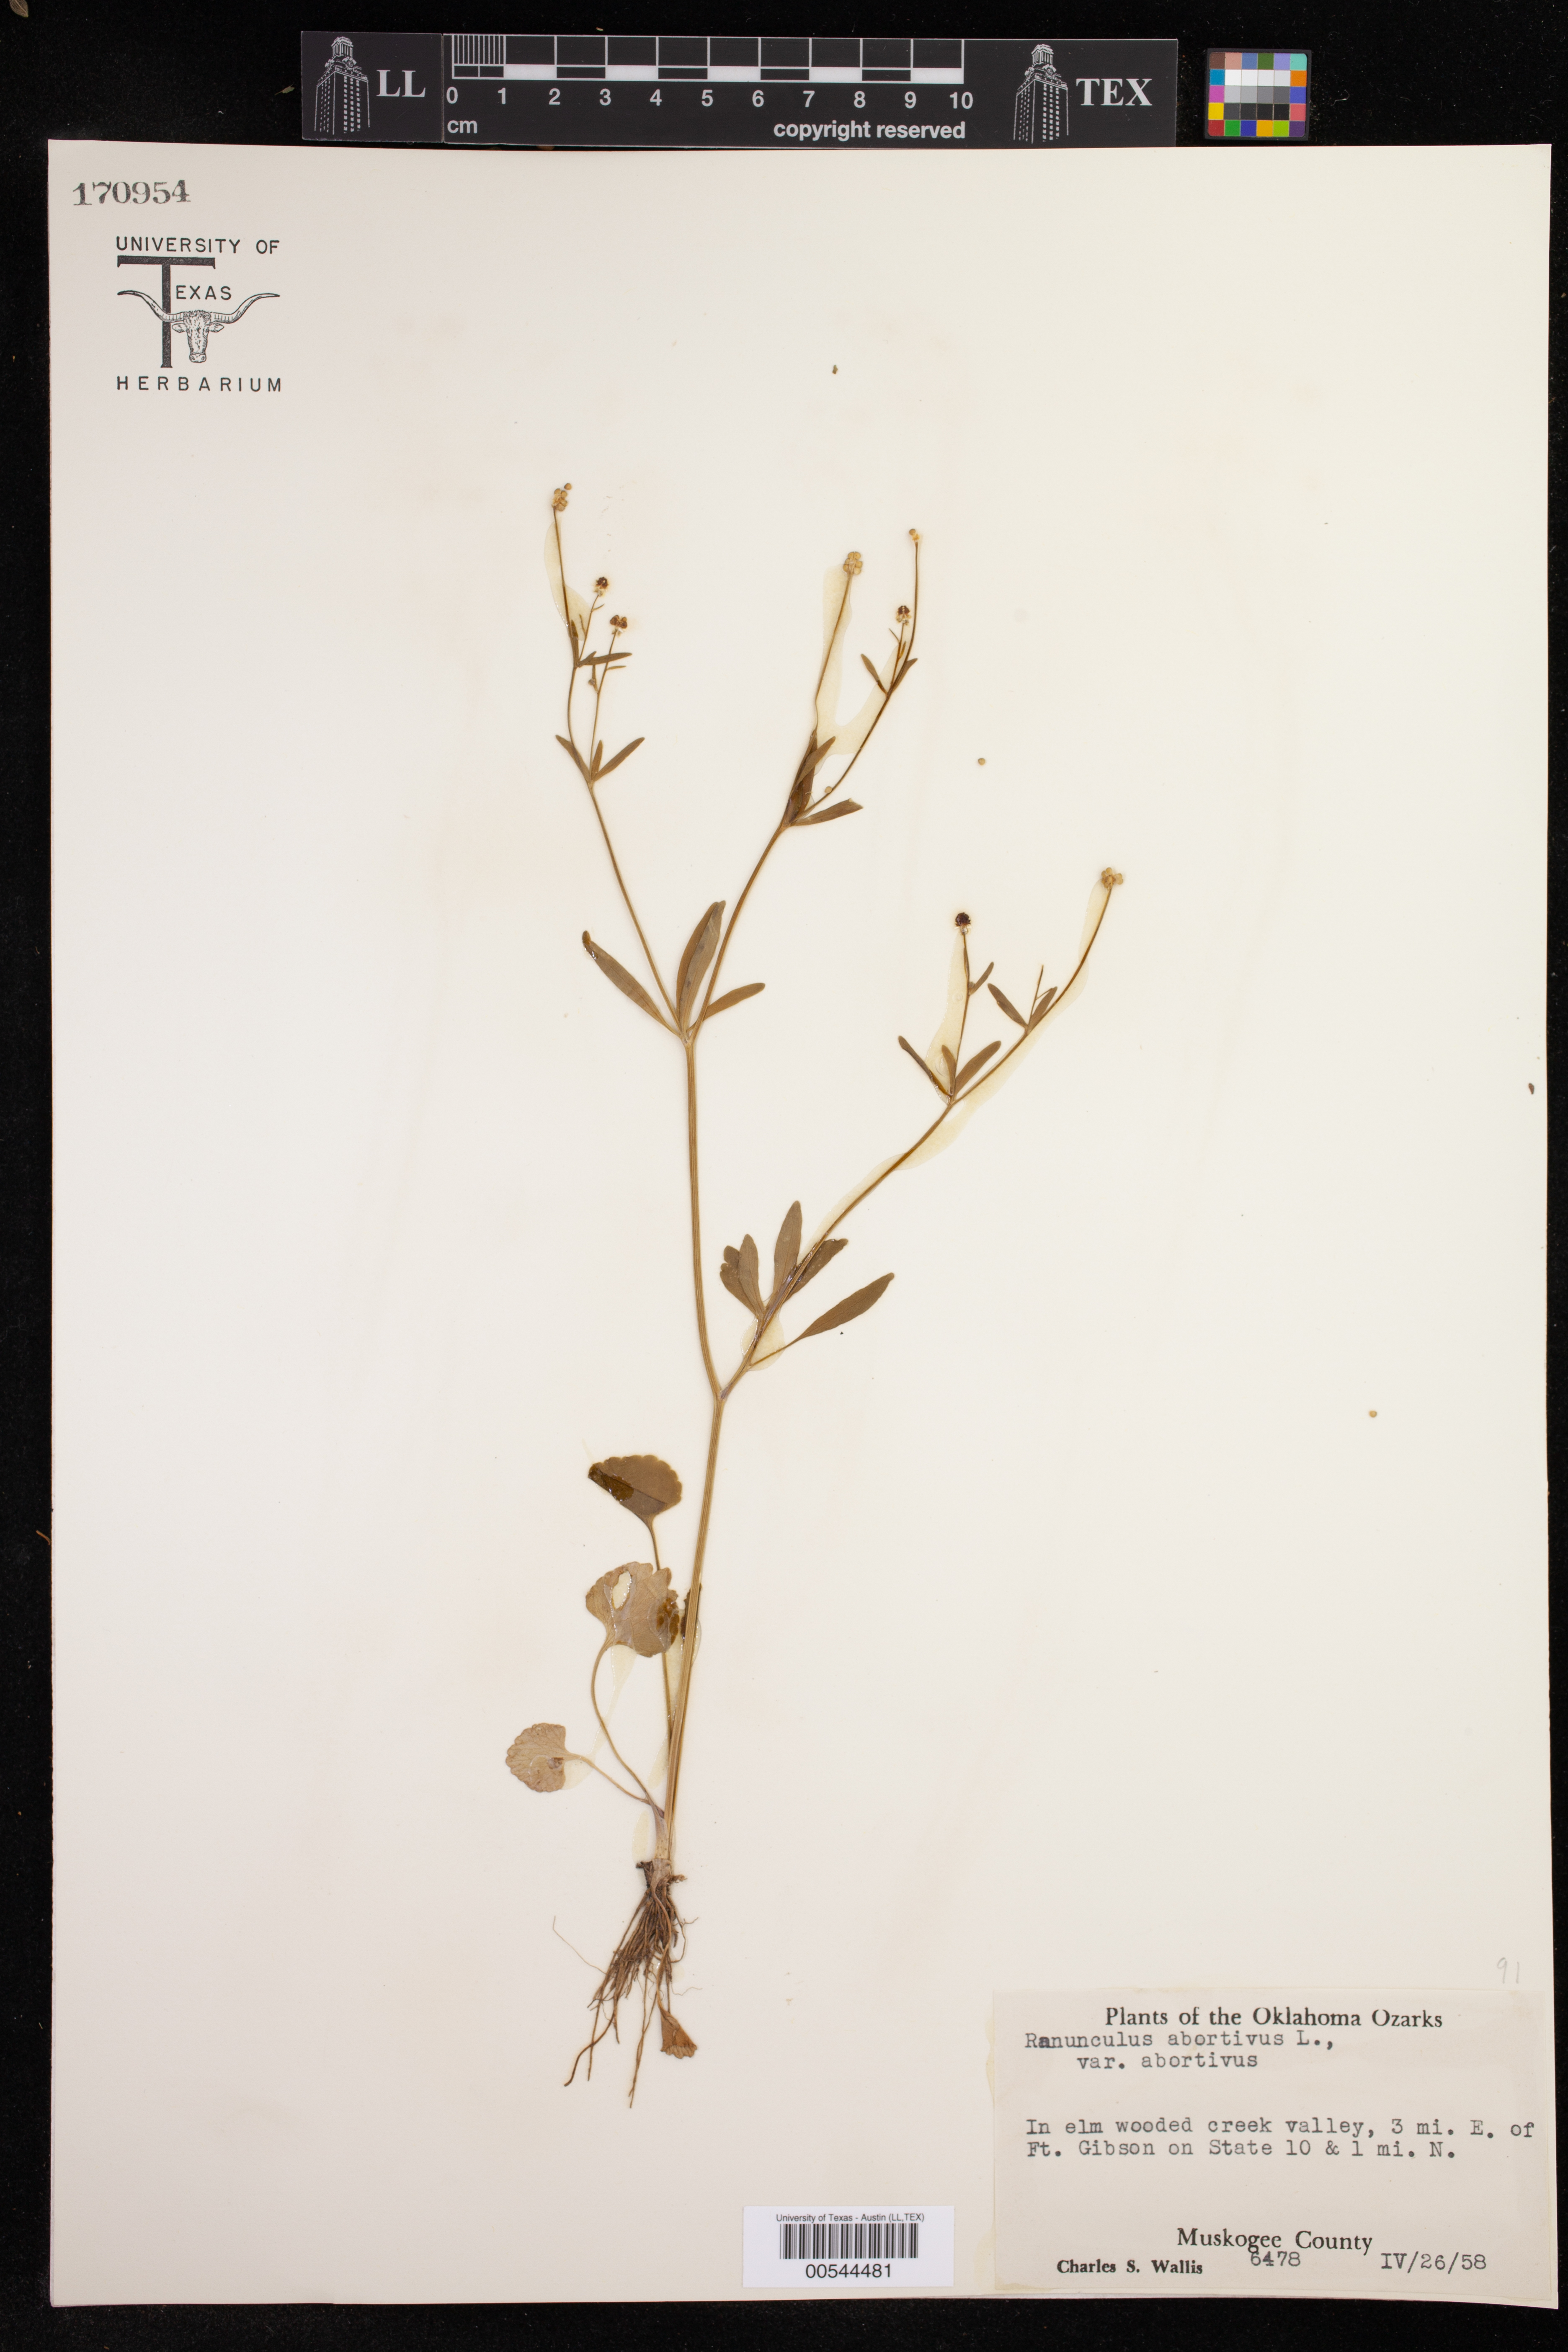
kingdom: Plantae
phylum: Tracheophyta
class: Magnoliopsida
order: Ranunculales
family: Ranunculaceae
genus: Ranunculus
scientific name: Ranunculus abortivus
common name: Early wood buttercup
